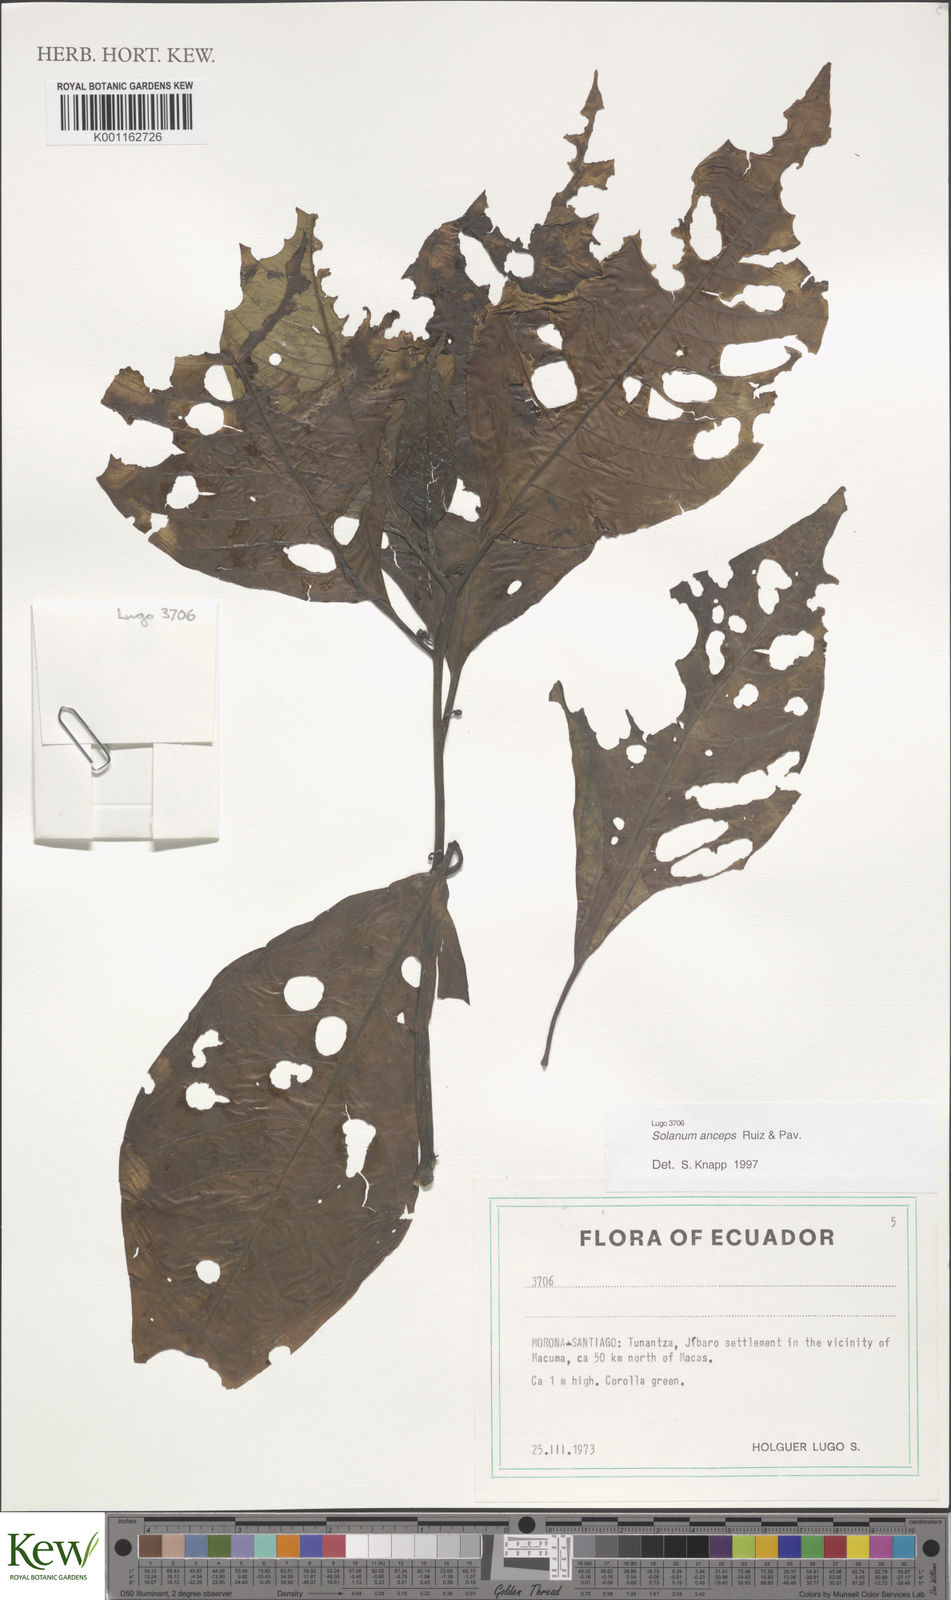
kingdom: Plantae
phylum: Tracheophyta
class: Magnoliopsida
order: Solanales
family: Solanaceae
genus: Solanum
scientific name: Solanum anceps
